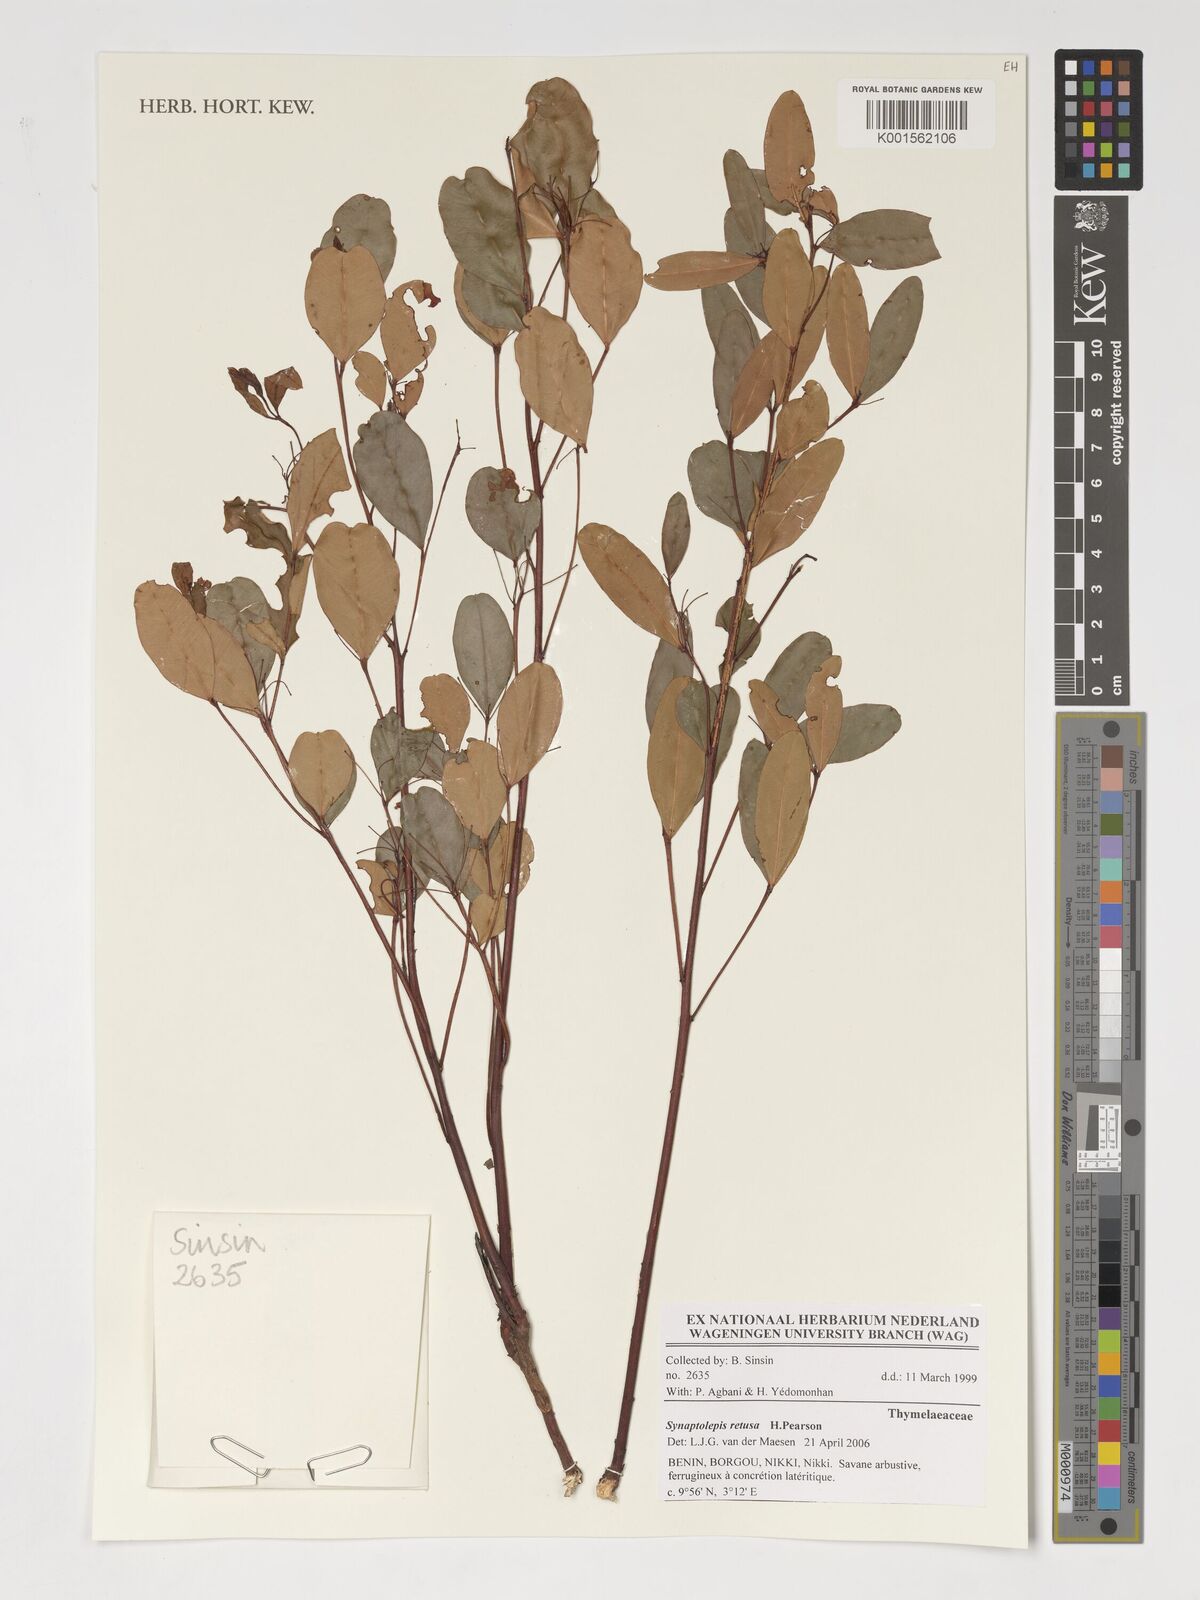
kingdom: Plantae
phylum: Tracheophyta
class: Magnoliopsida
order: Malvales
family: Thymelaeaceae
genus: Synaptolepis
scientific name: Synaptolepis retusa
